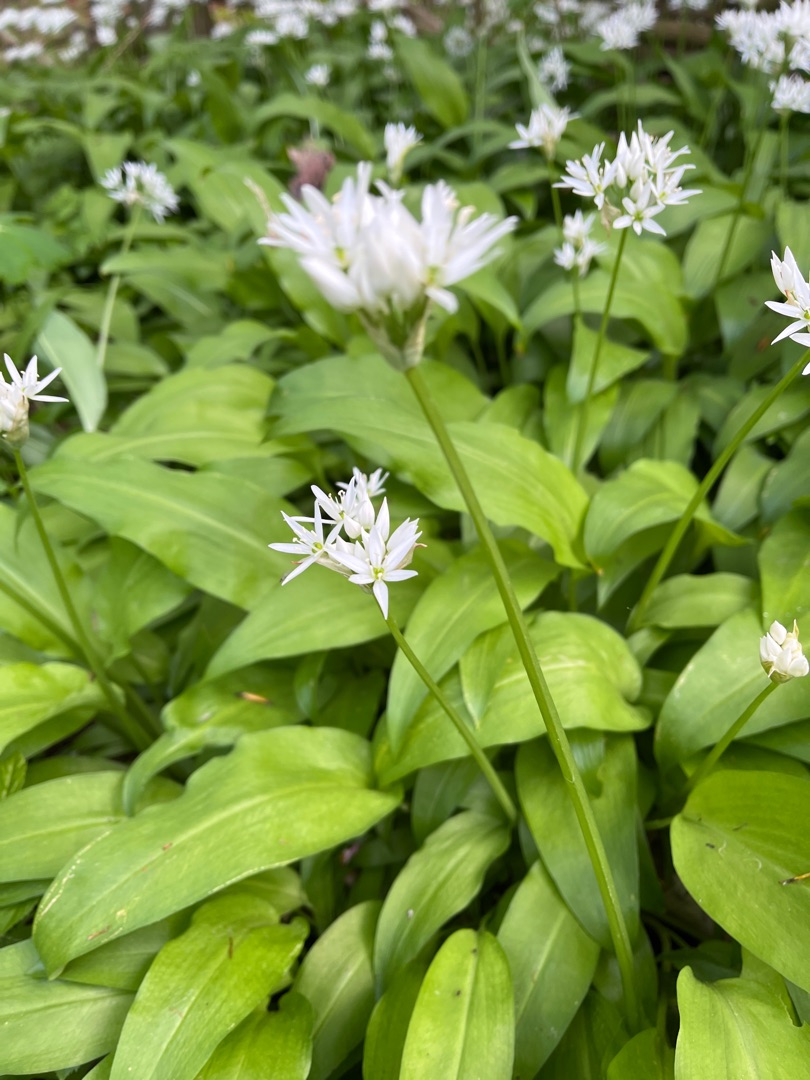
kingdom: Plantae
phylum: Tracheophyta
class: Liliopsida
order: Asparagales
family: Amaryllidaceae
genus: Allium
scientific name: Allium ursinum
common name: Rams-løg
